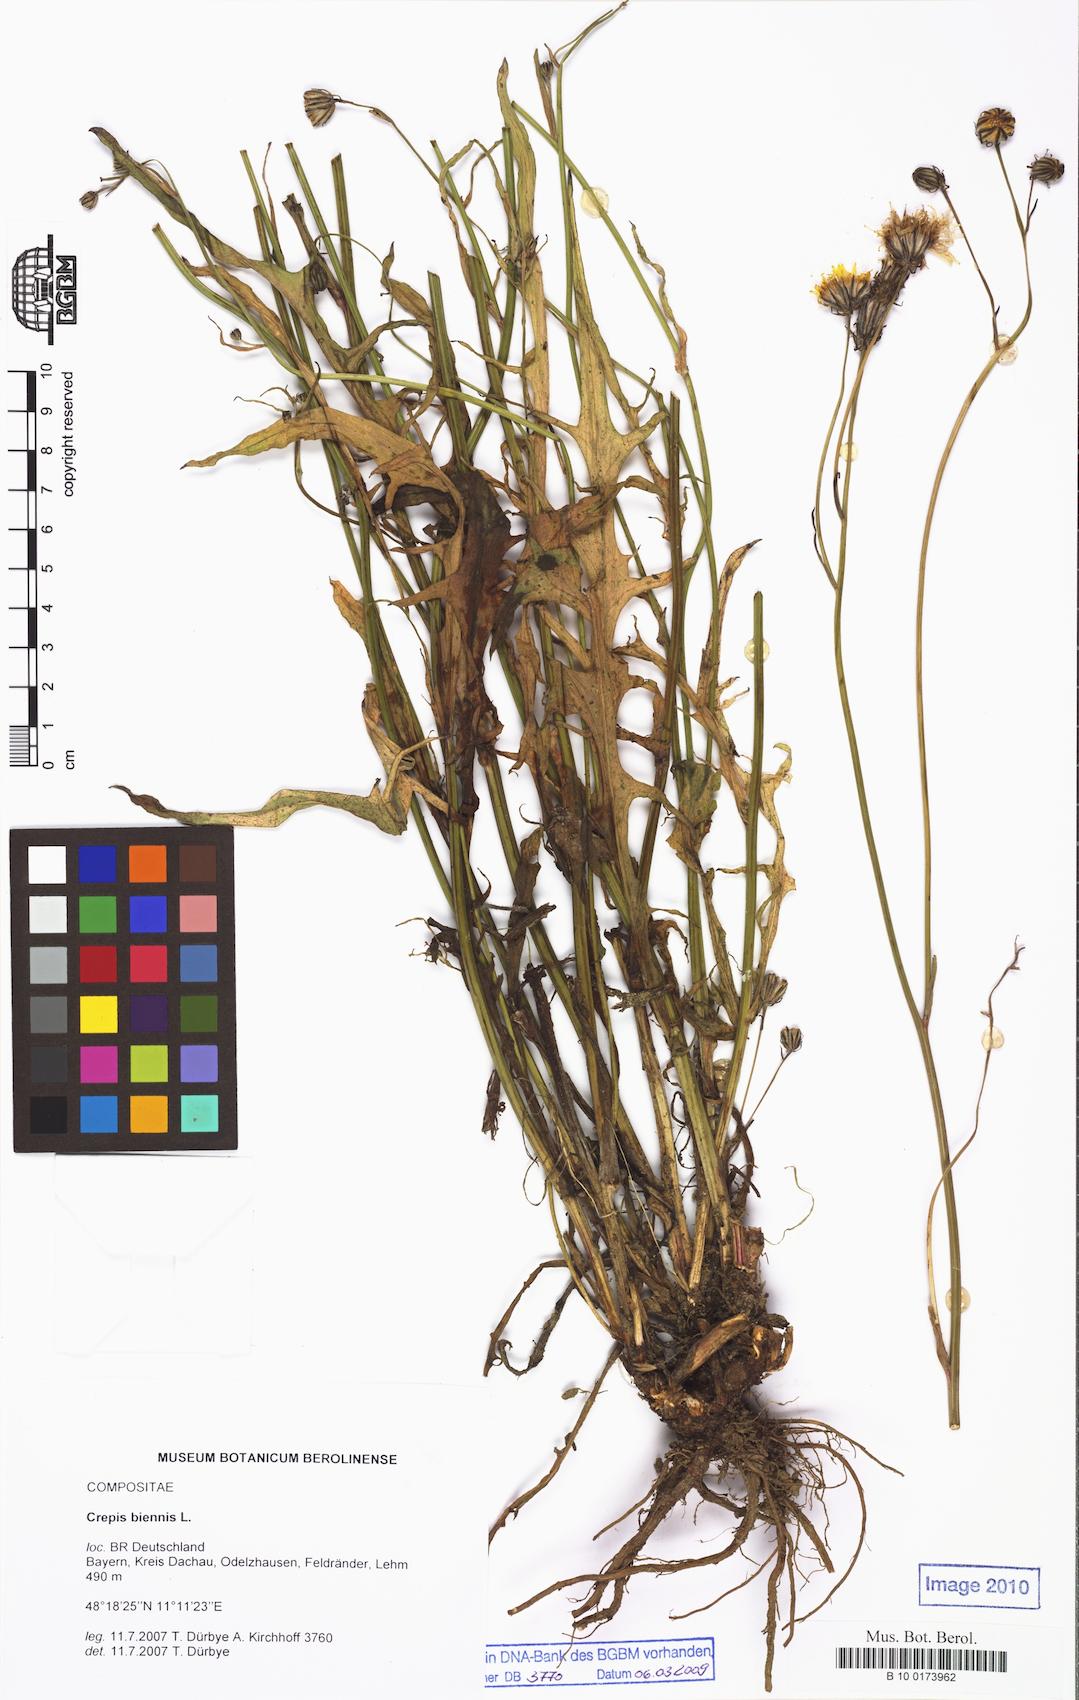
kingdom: Plantae
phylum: Tracheophyta
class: Magnoliopsida
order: Asterales
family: Asteraceae
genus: Crepis
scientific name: Crepis biennis
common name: Rough hawk's-beard
